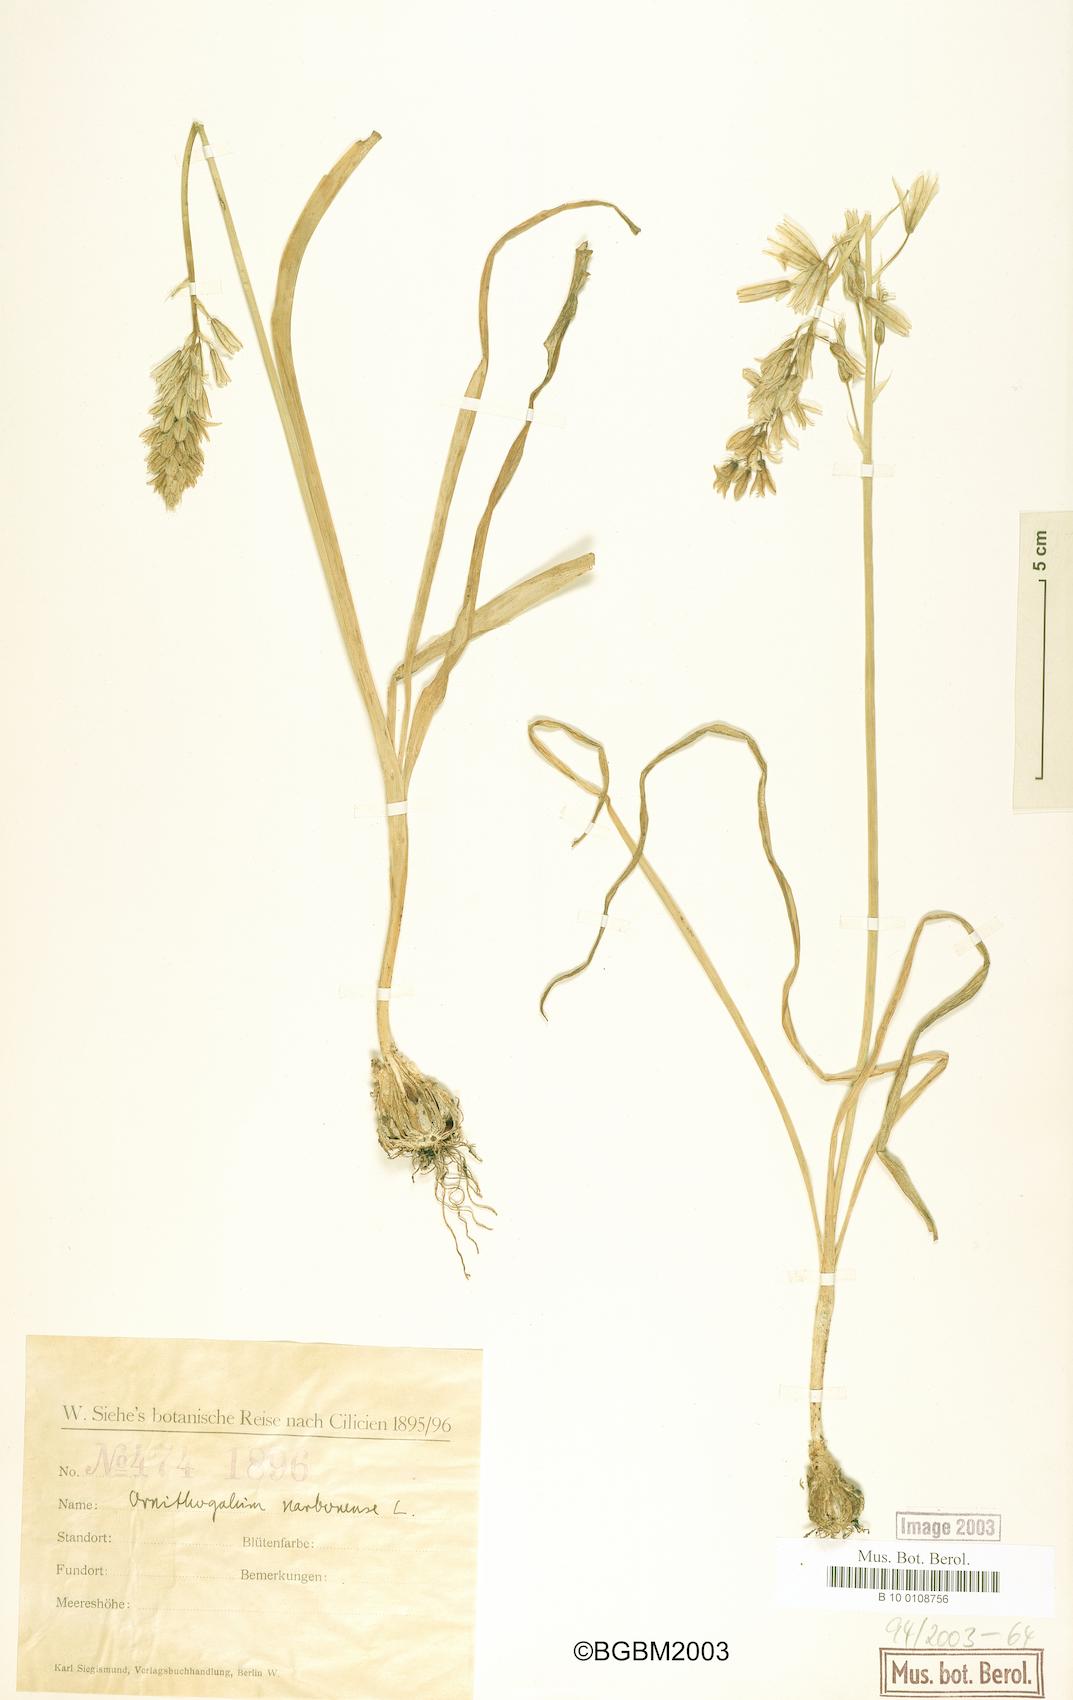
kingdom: Plantae
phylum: Tracheophyta
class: Liliopsida
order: Asparagales
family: Asparagaceae
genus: Ornithogalum
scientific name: Ornithogalum narbonense
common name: Bath-asparagus
